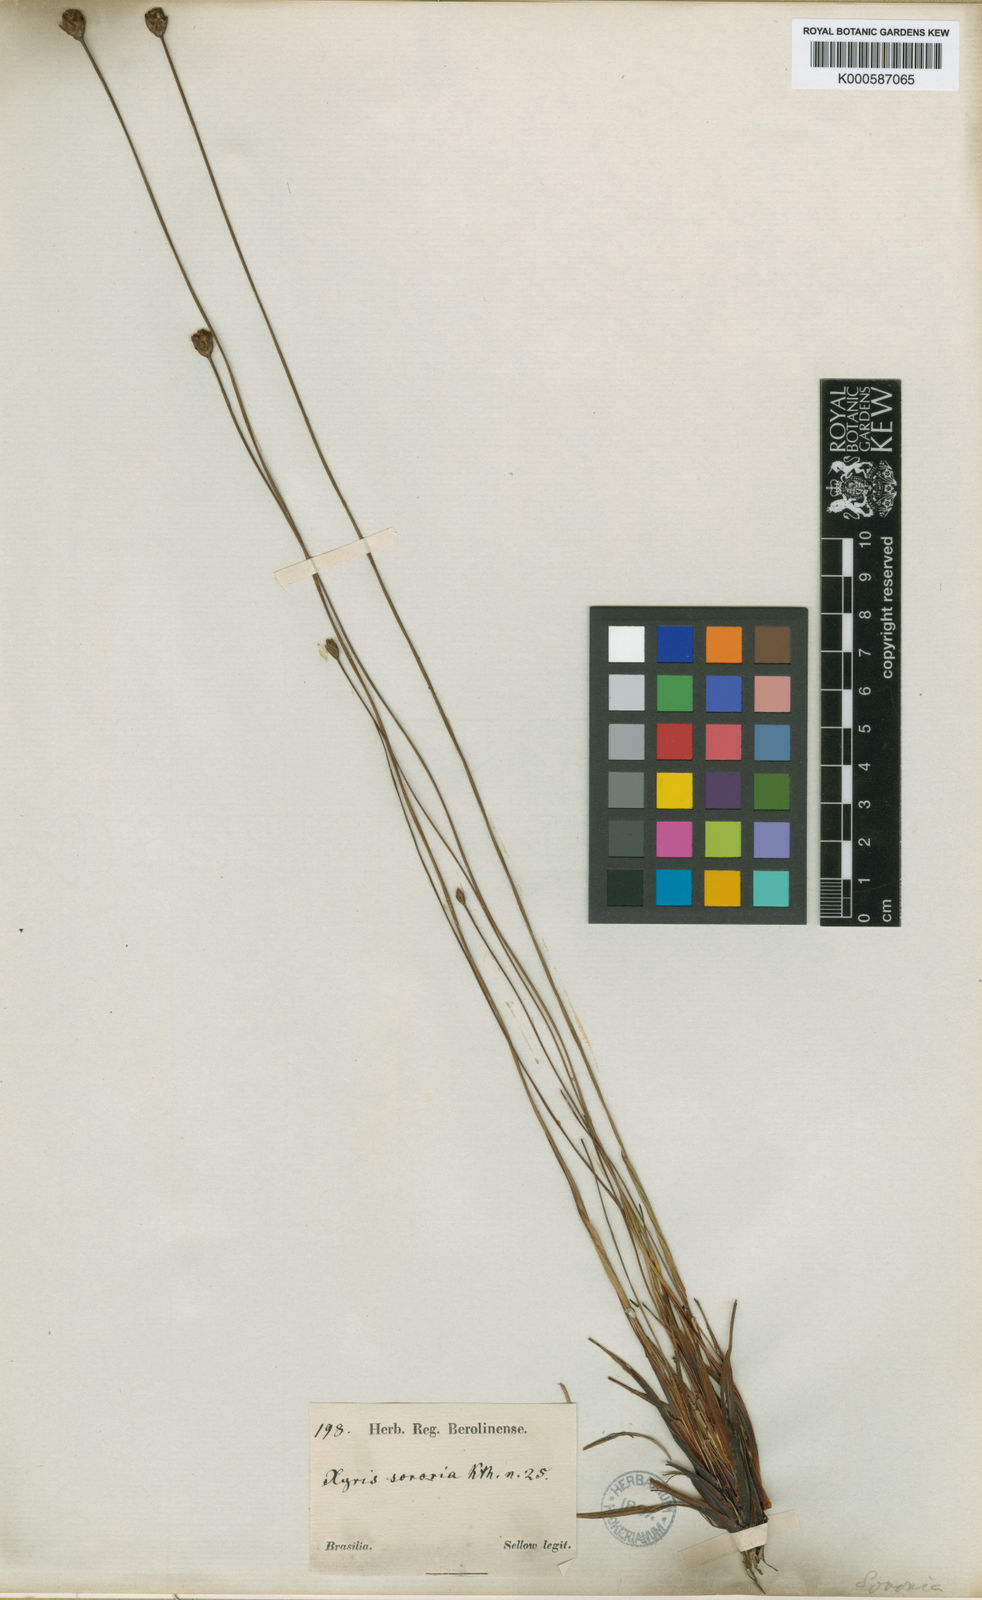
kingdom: Plantae
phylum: Tracheophyta
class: Liliopsida
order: Poales
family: Xyridaceae
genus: Xyris
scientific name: Xyris sororia
